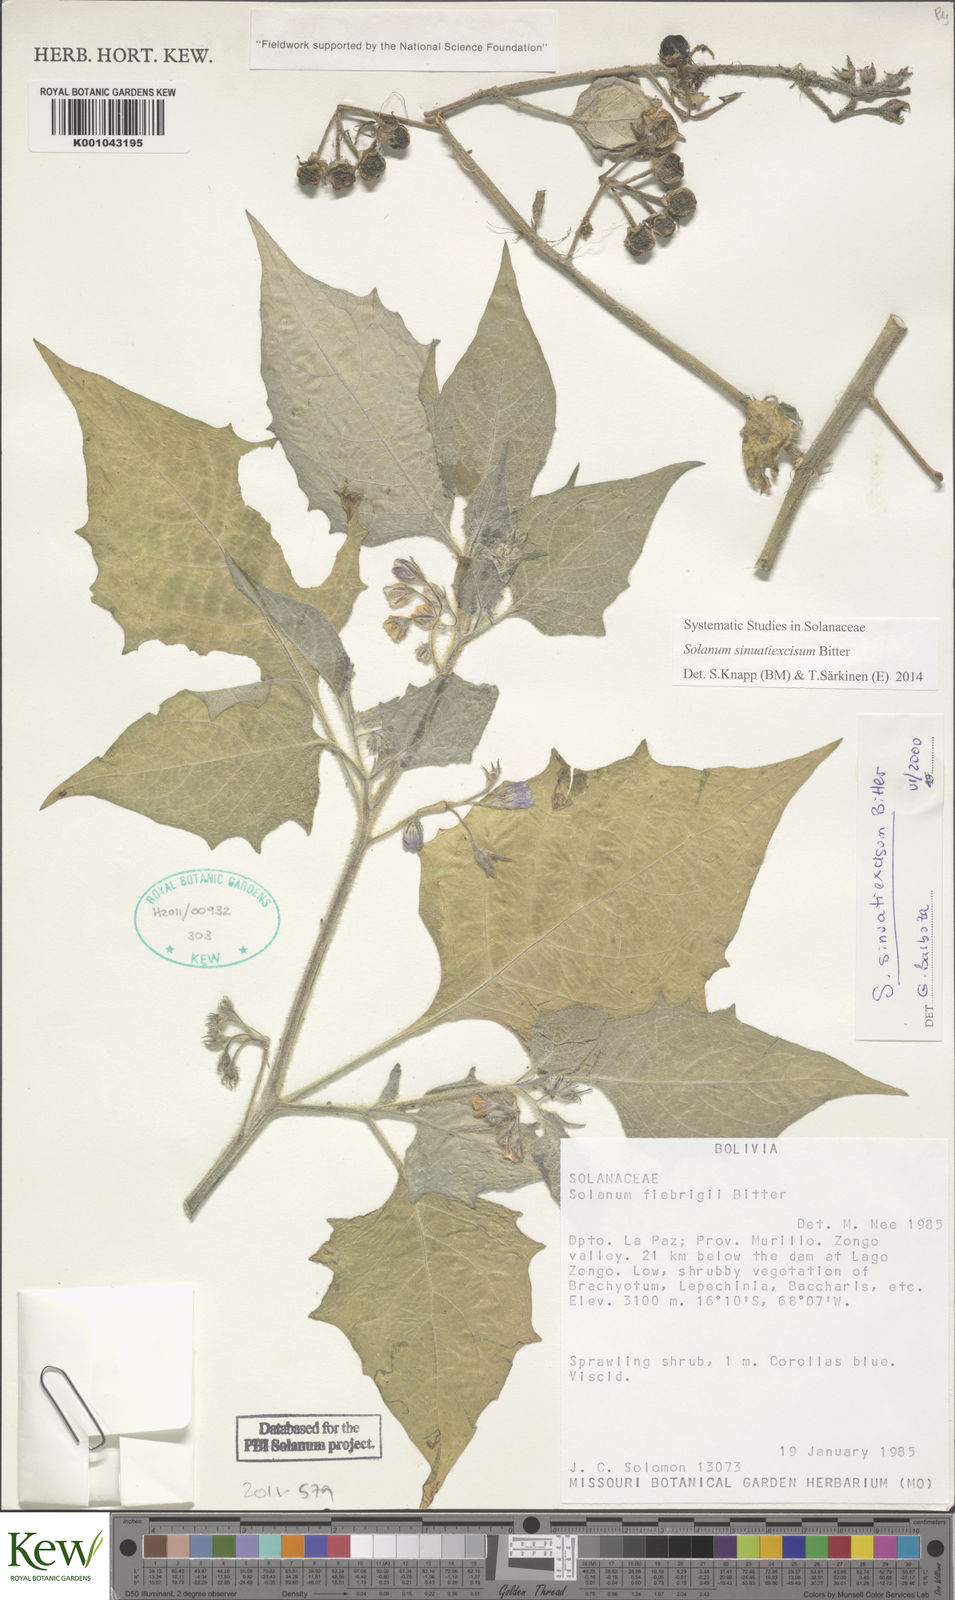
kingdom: Plantae
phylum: Tracheophyta
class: Magnoliopsida
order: Solanales
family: Solanaceae
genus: Solanum
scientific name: Solanum sinuatiexcisum
